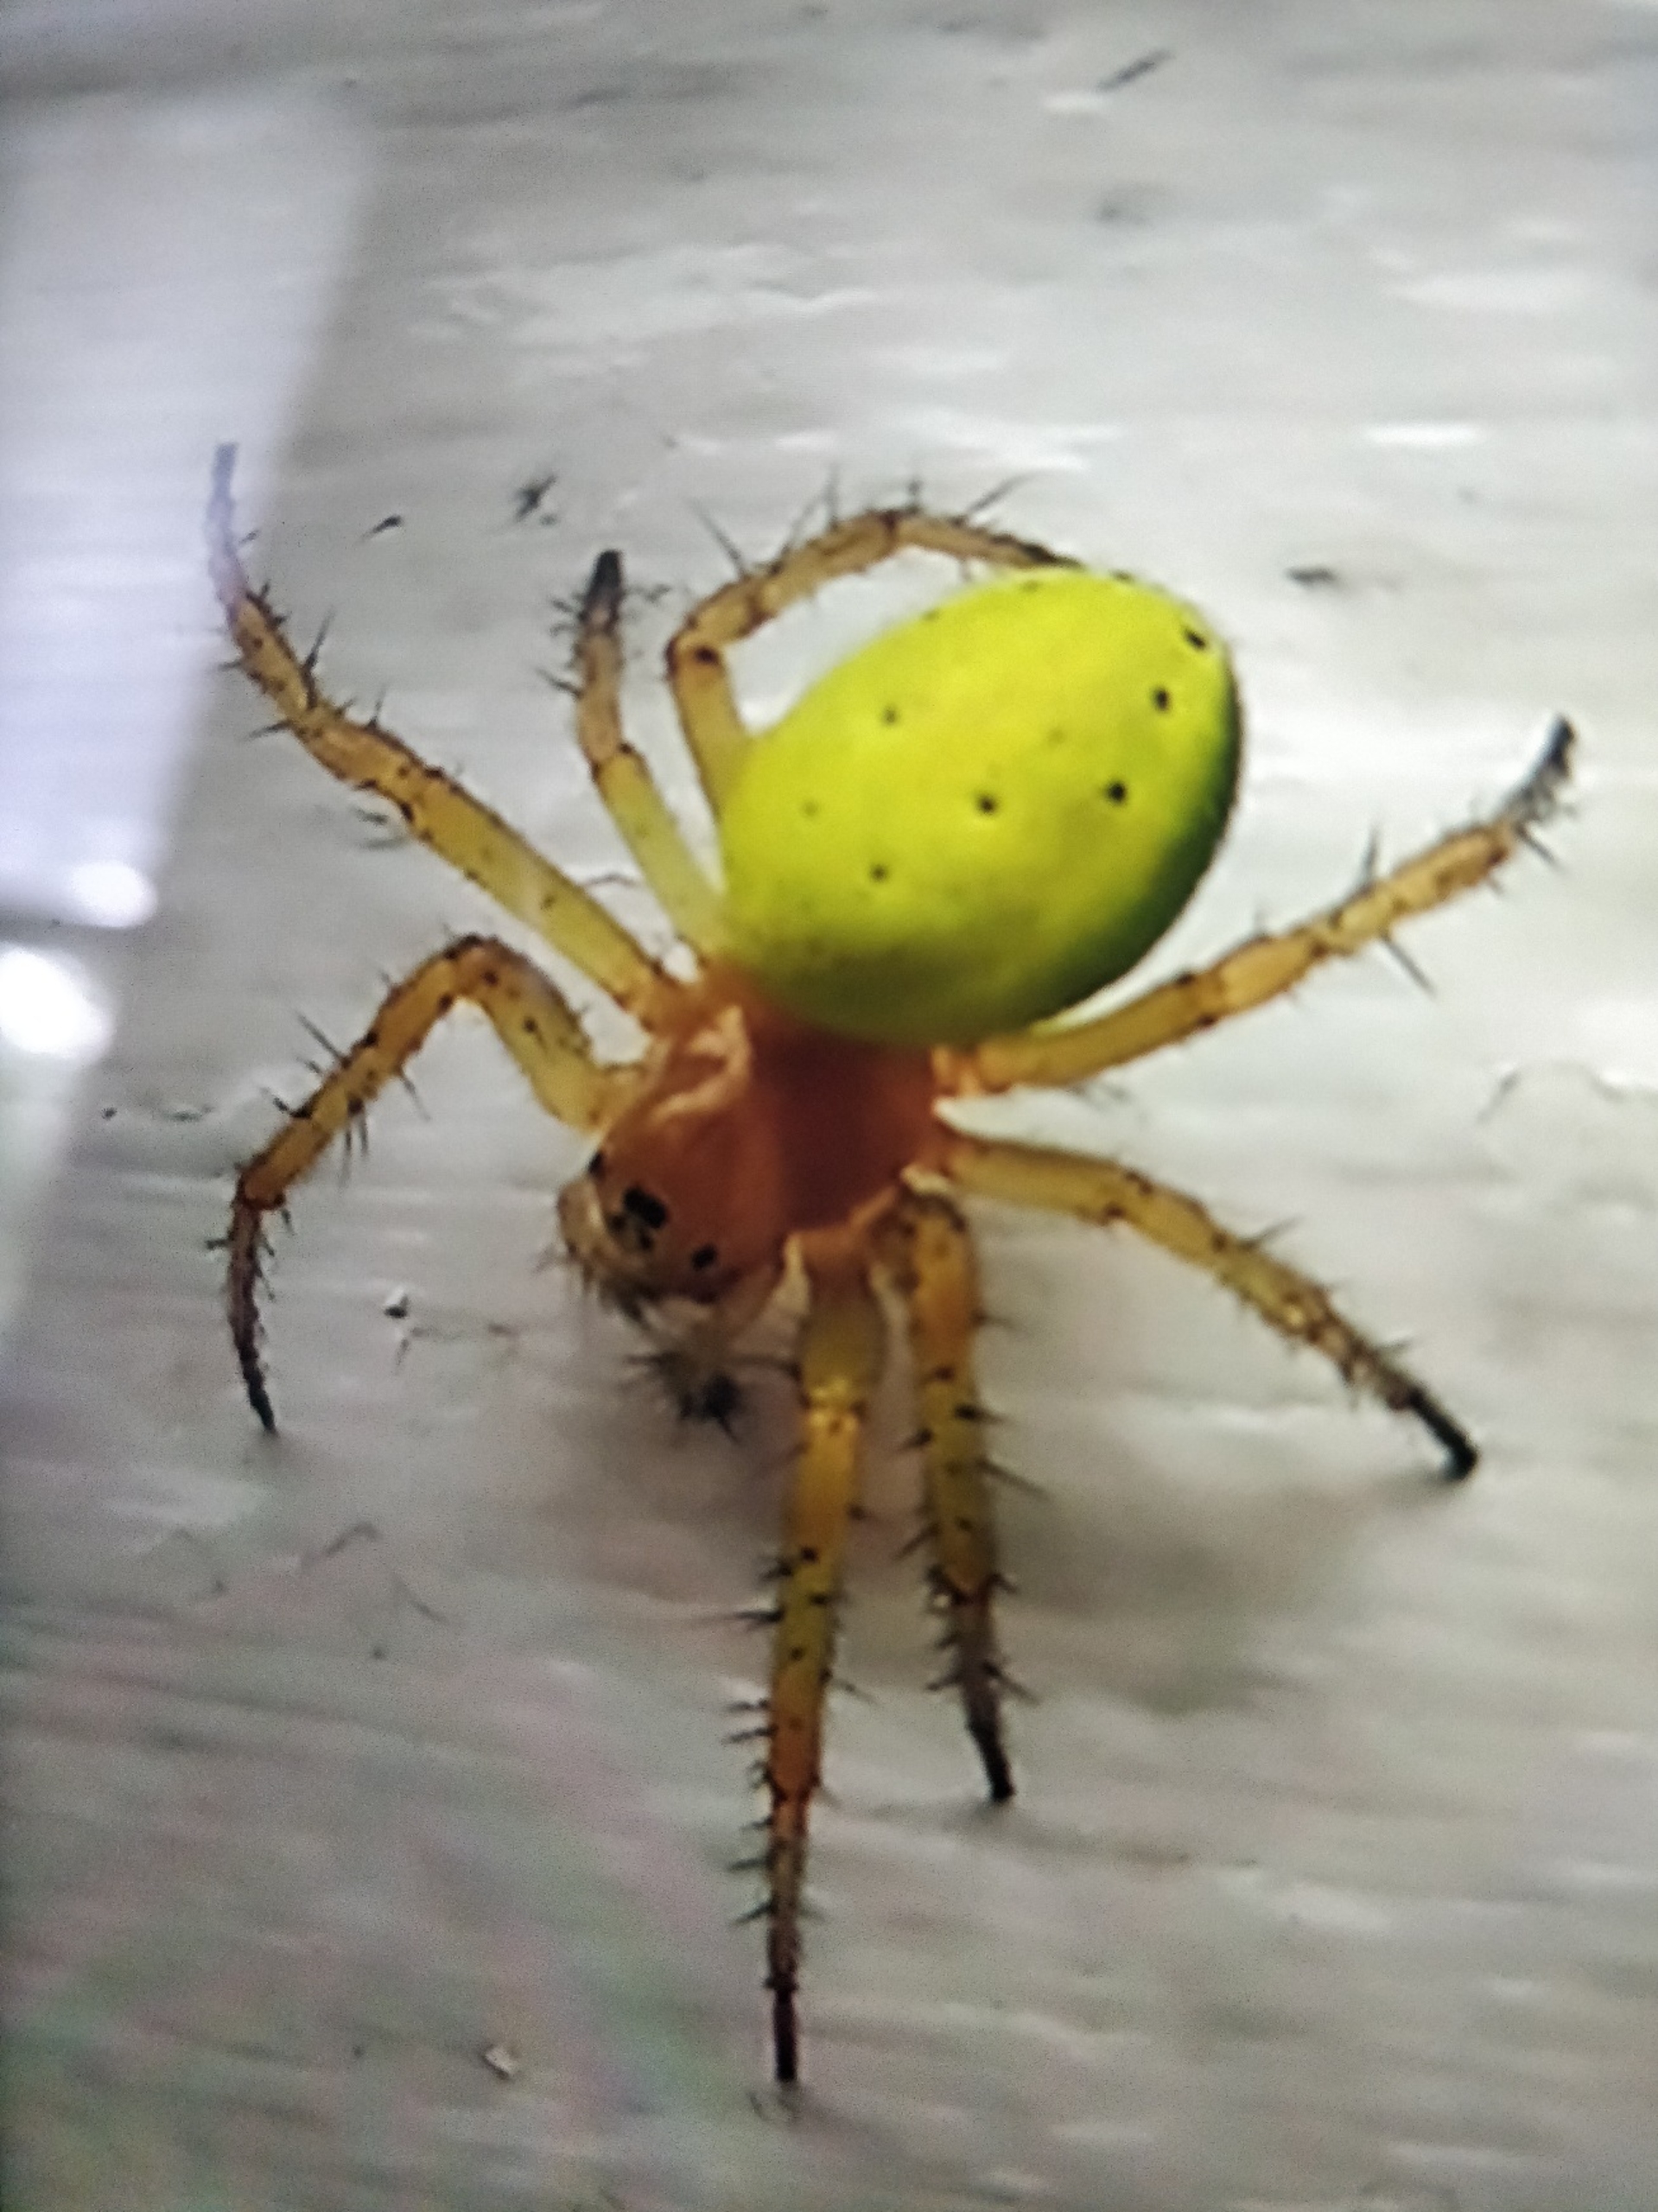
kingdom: Animalia
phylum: Arthropoda
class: Arachnida
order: Araneae
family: Araneidae
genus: Araniella
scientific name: Araniella
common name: Agurkeedderkopslægten
